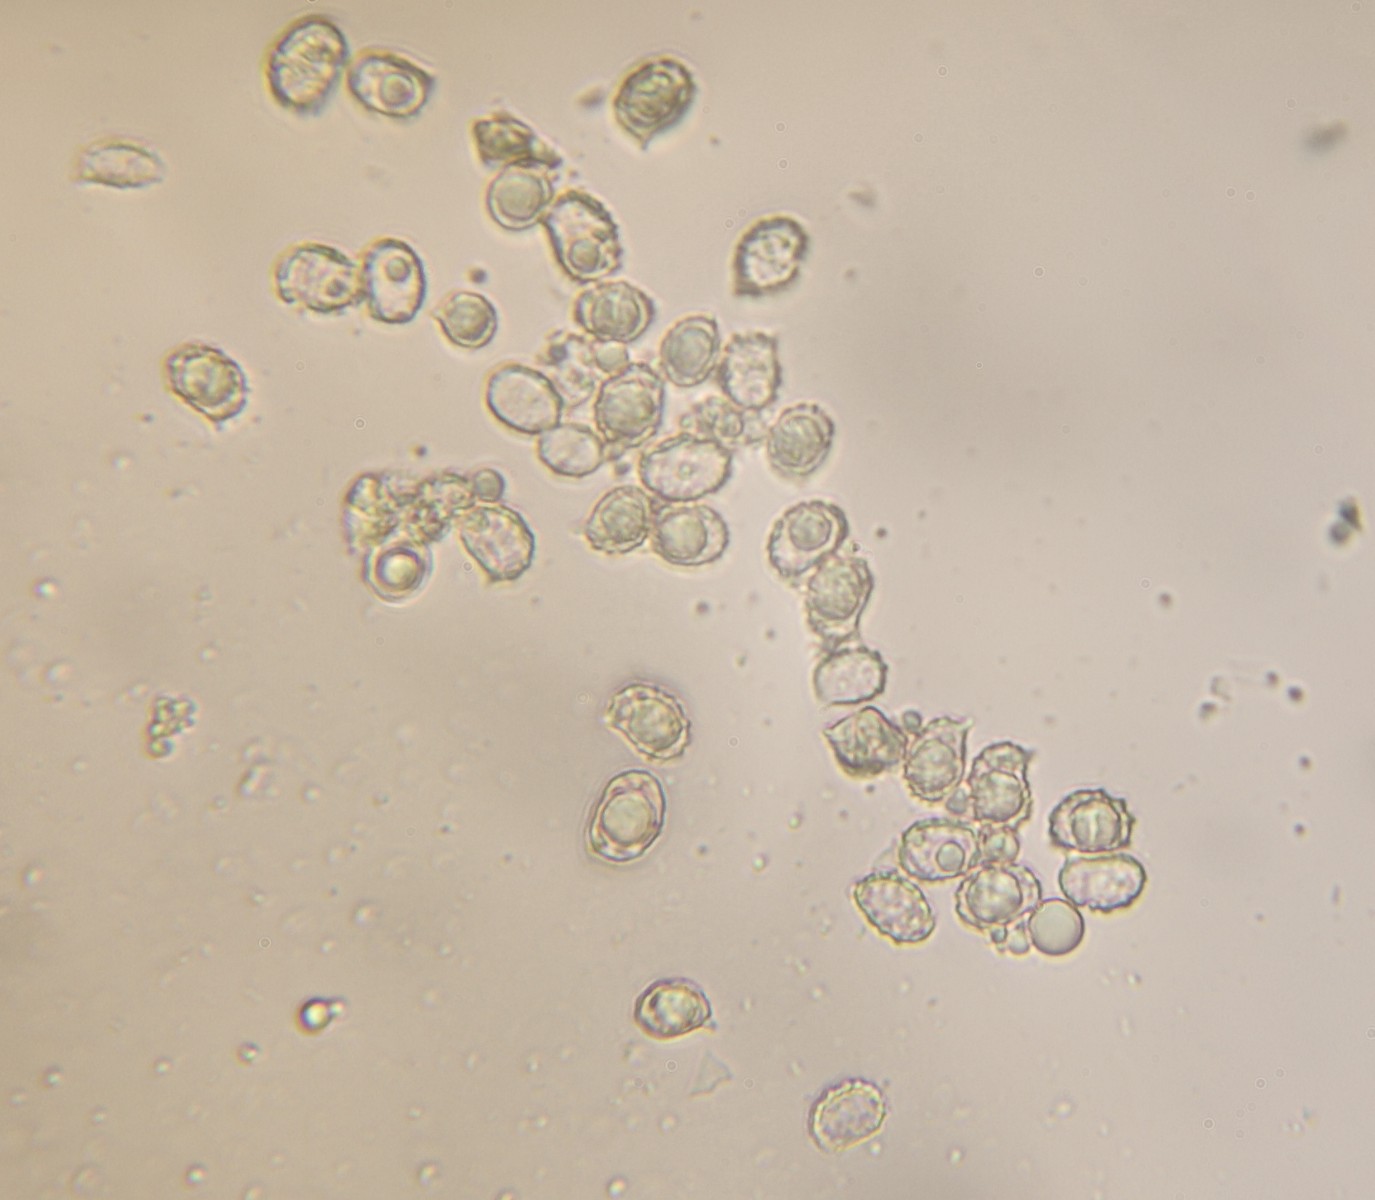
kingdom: Fungi
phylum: Basidiomycota
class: Agaricomycetes
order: Russulales
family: Russulaceae
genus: Lactarius
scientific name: Lactarius
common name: mælkehat
